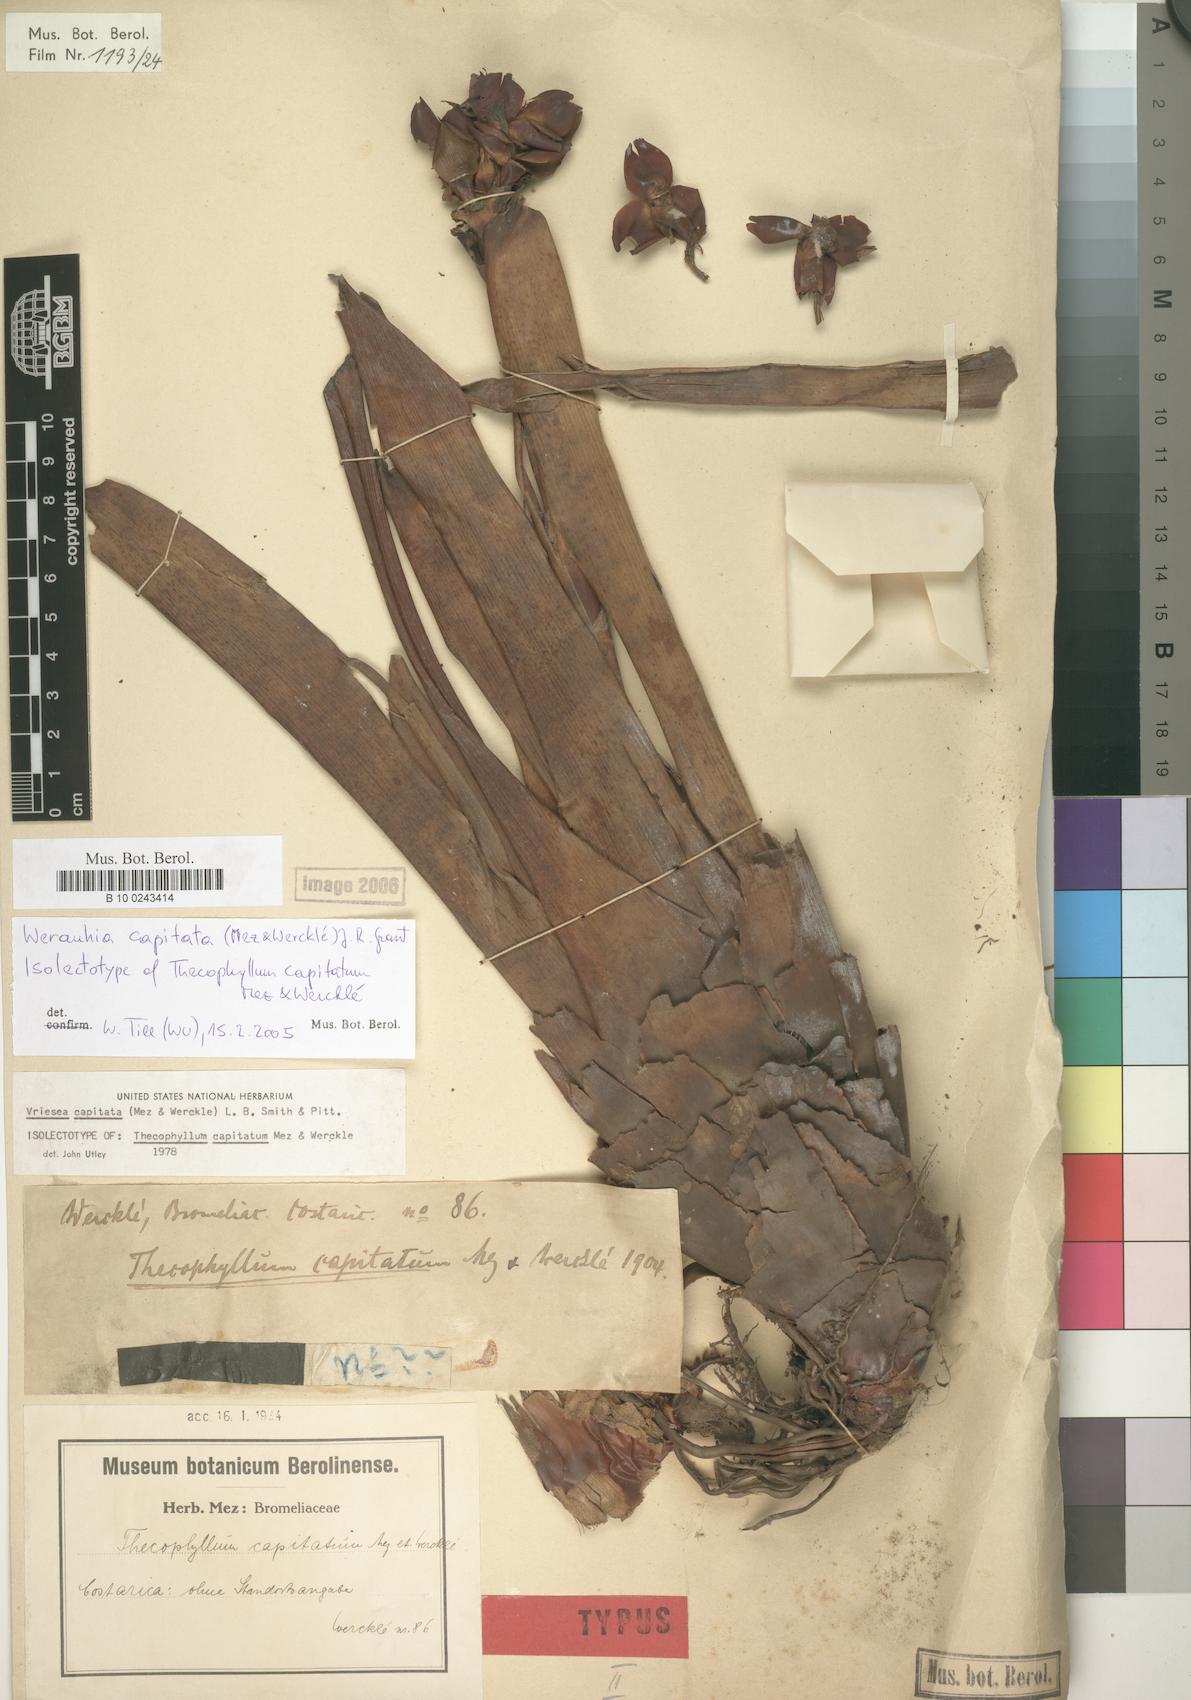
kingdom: Plantae
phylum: Tracheophyta
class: Liliopsida
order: Poales
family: Bromeliaceae
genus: Werauhia
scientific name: Werauhia capitata
